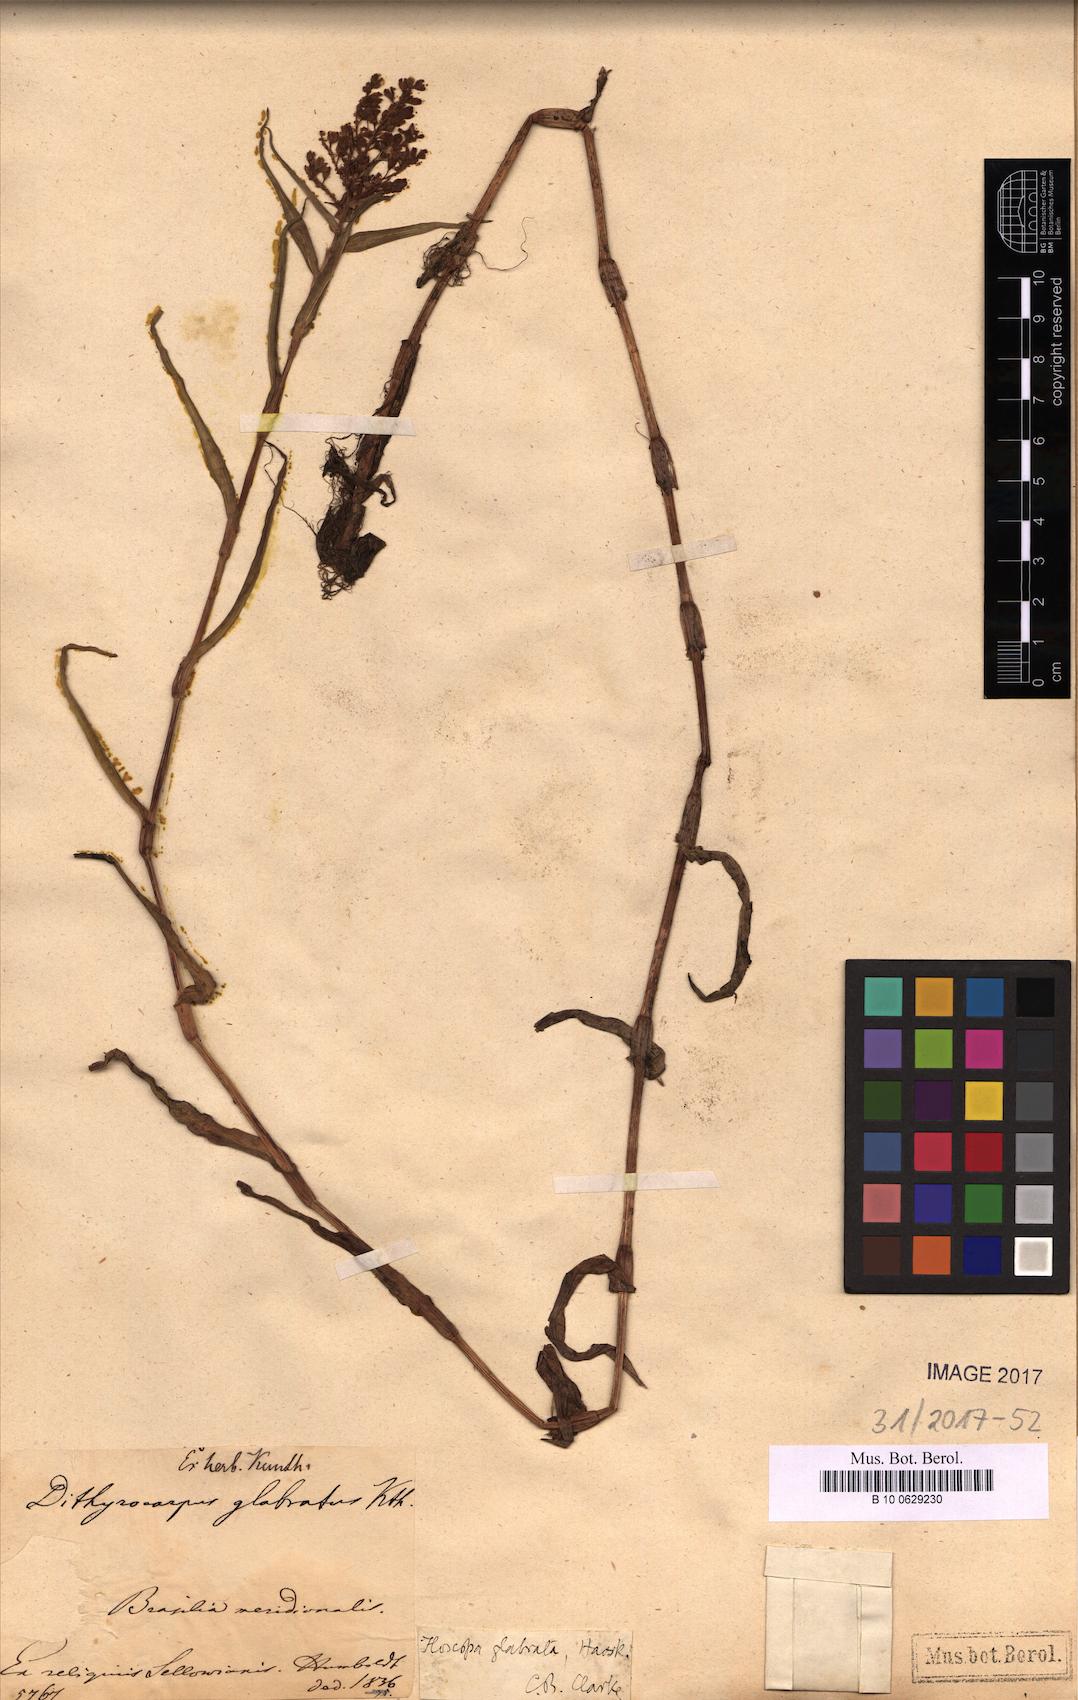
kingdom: Plantae
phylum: Tracheophyta
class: Liliopsida
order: Commelinales
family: Commelinaceae
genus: Floscopa
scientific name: Floscopa glabrata
